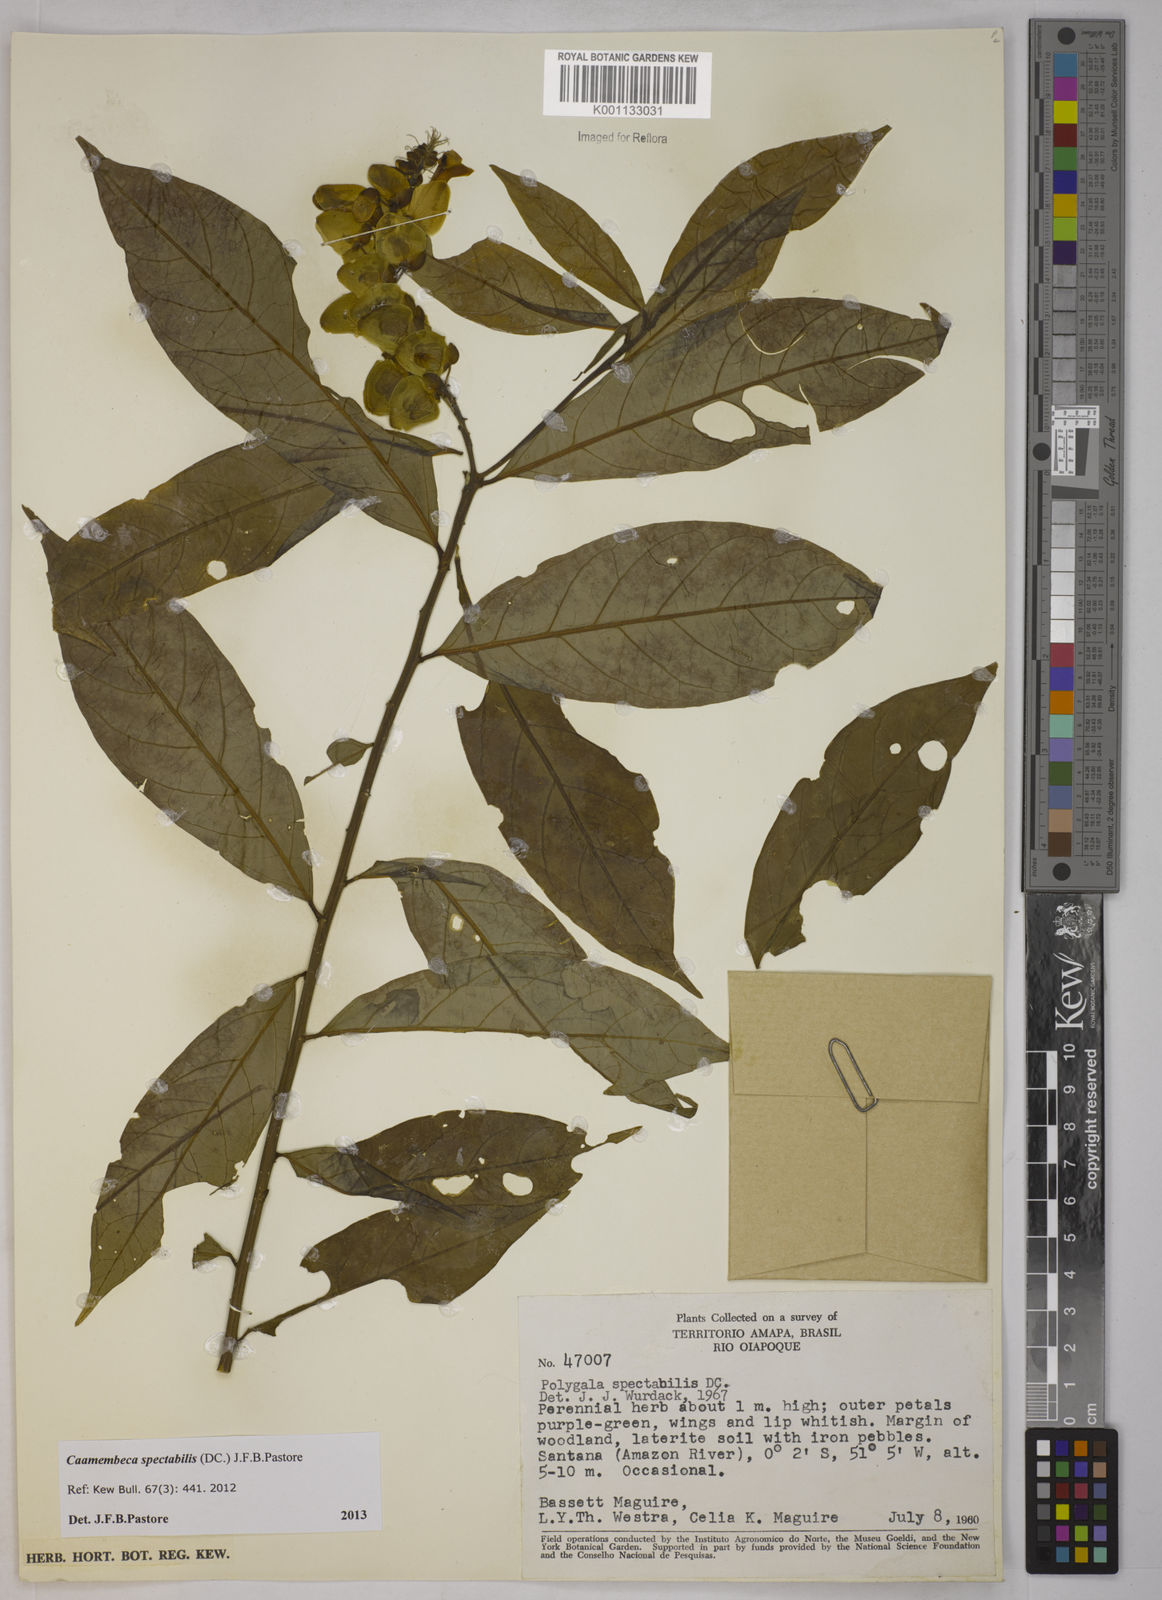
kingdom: Plantae
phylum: Tracheophyta
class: Magnoliopsida
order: Fabales
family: Polygalaceae
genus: Polygala
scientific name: Polygala
